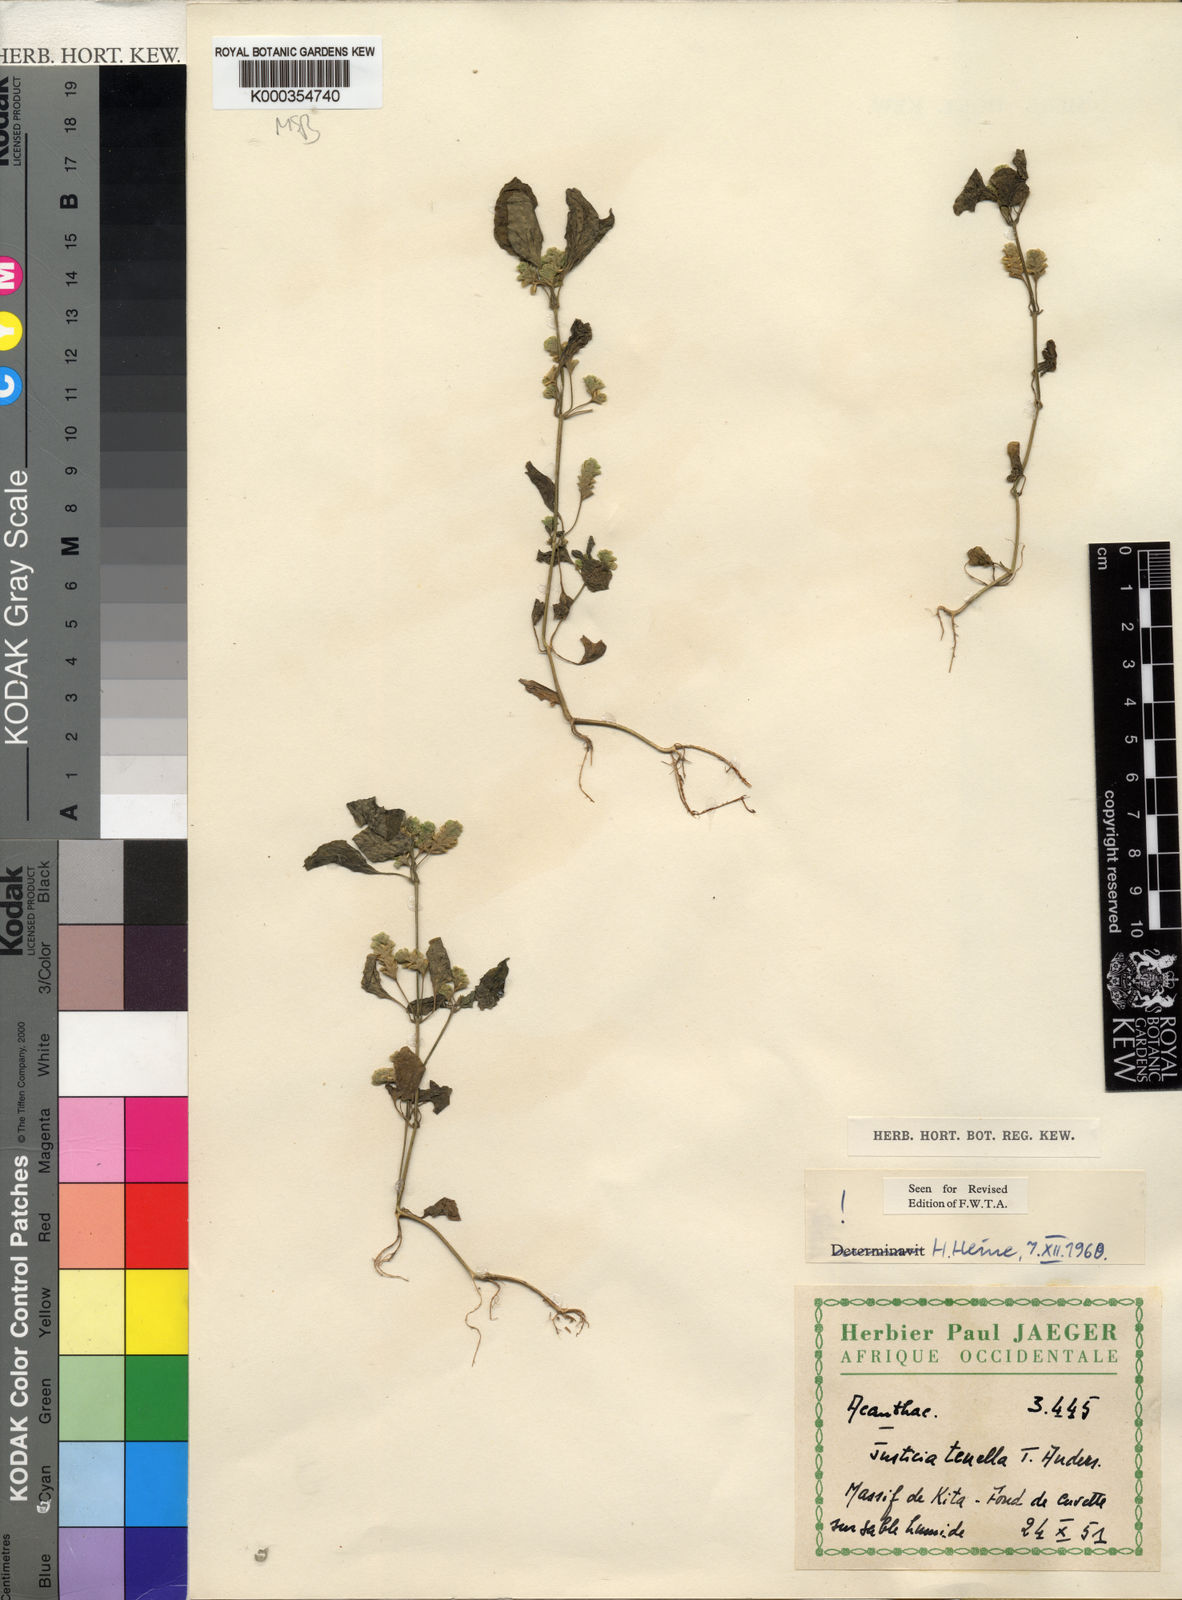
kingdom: Plantae
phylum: Tracheophyta
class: Magnoliopsida
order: Lamiales
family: Acanthaceae
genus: Anisostachya
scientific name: Anisostachya tenella
